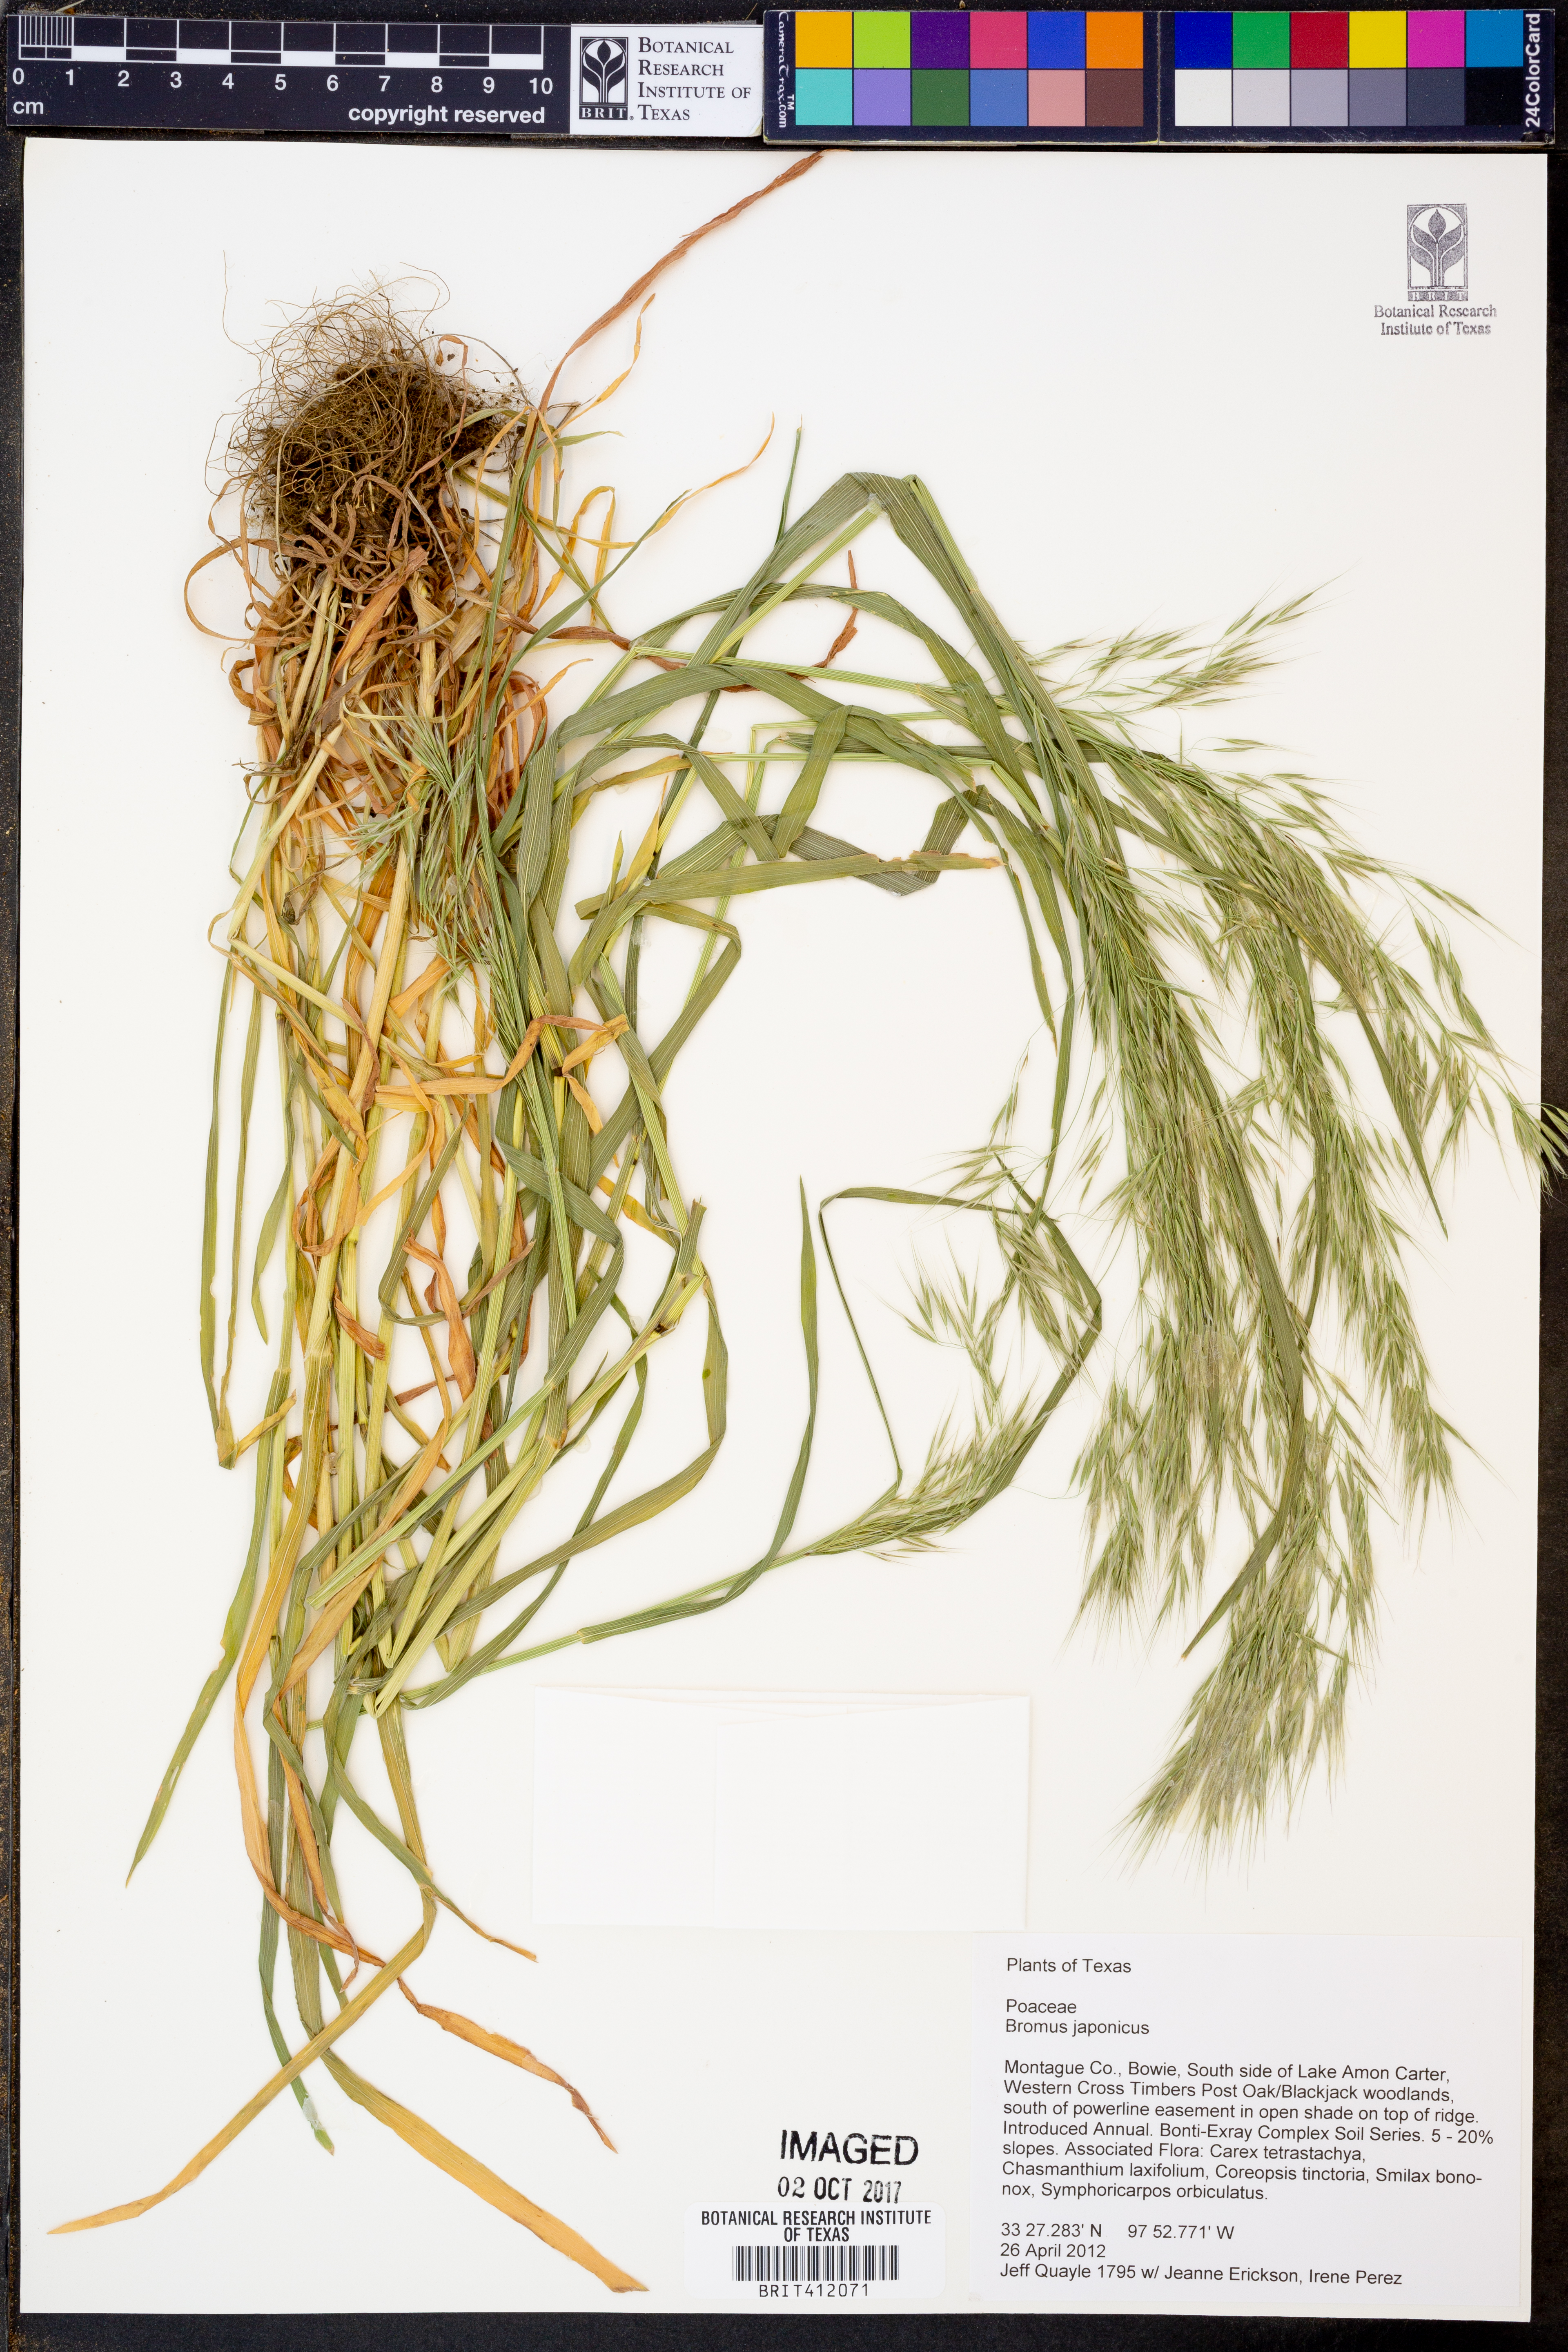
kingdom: Plantae
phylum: Tracheophyta
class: Liliopsida
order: Poales
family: Poaceae
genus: Bromus
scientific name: Bromus japonicus
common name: Japanese brome
